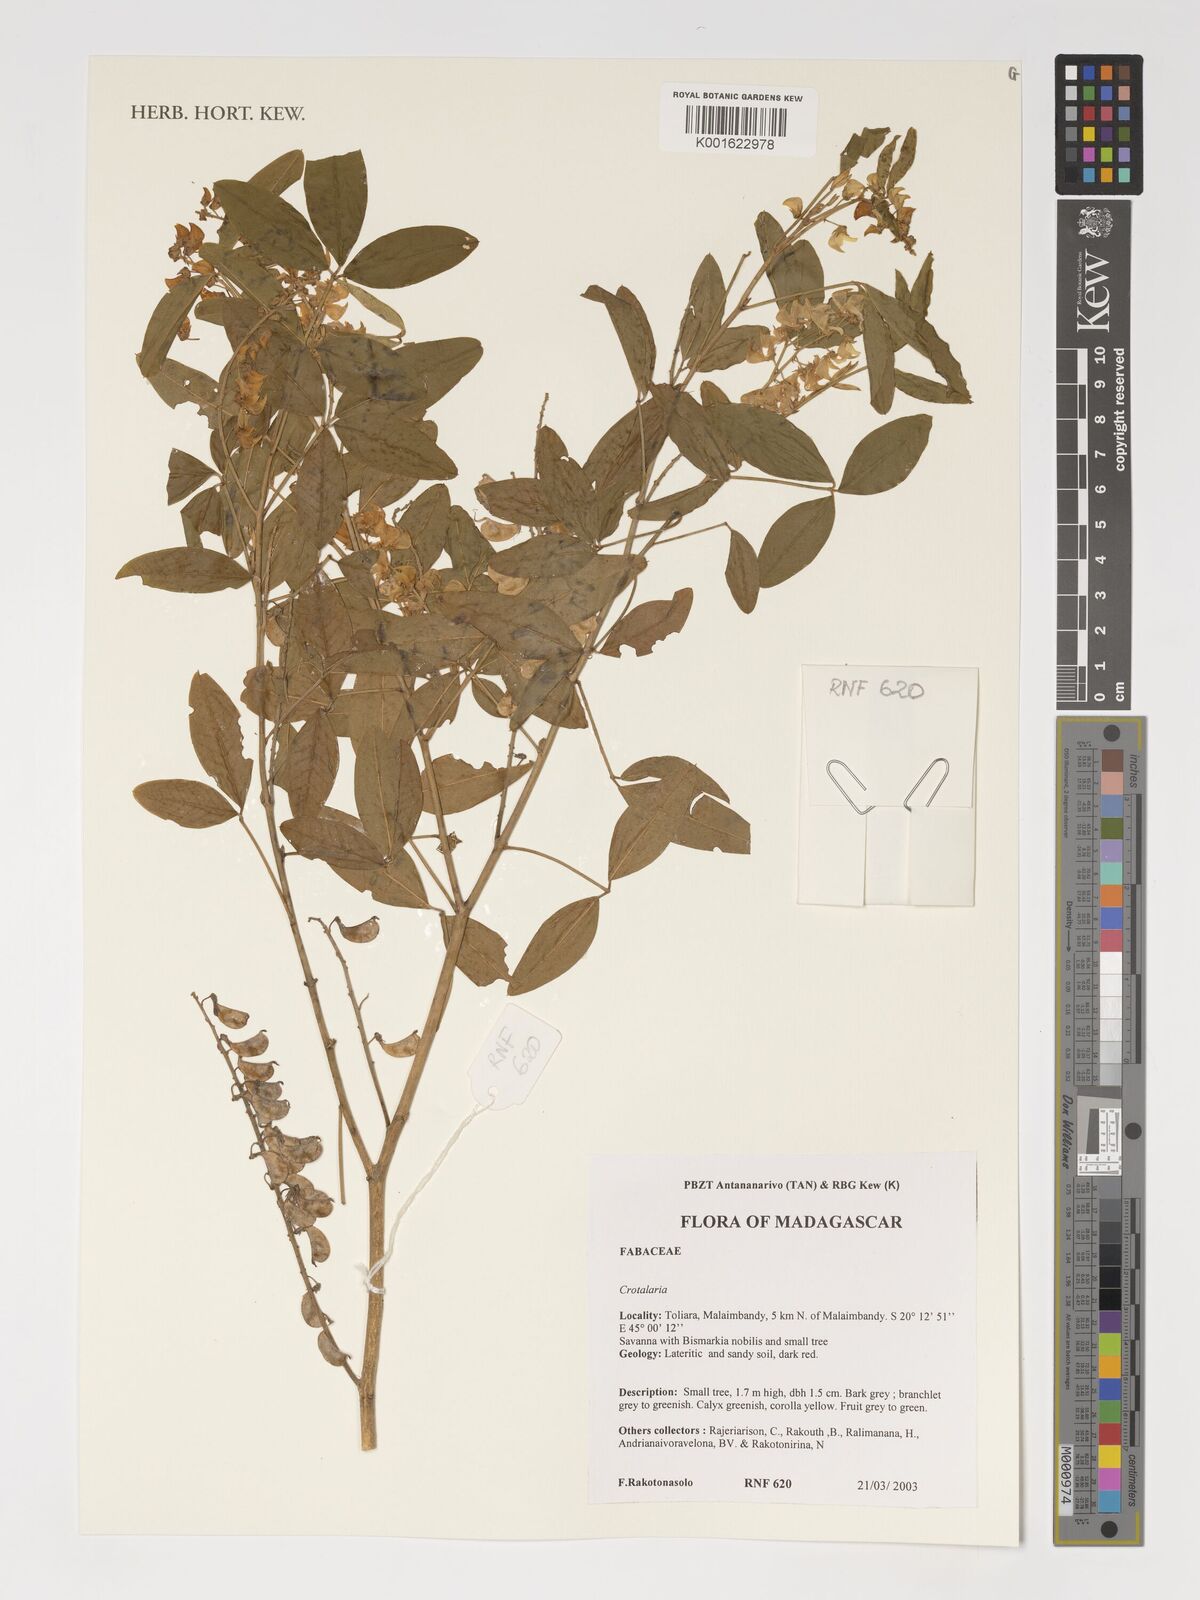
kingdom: Plantae
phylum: Tracheophyta
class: Magnoliopsida
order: Fabales
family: Fabaceae
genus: Crotalaria
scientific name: Crotalaria
